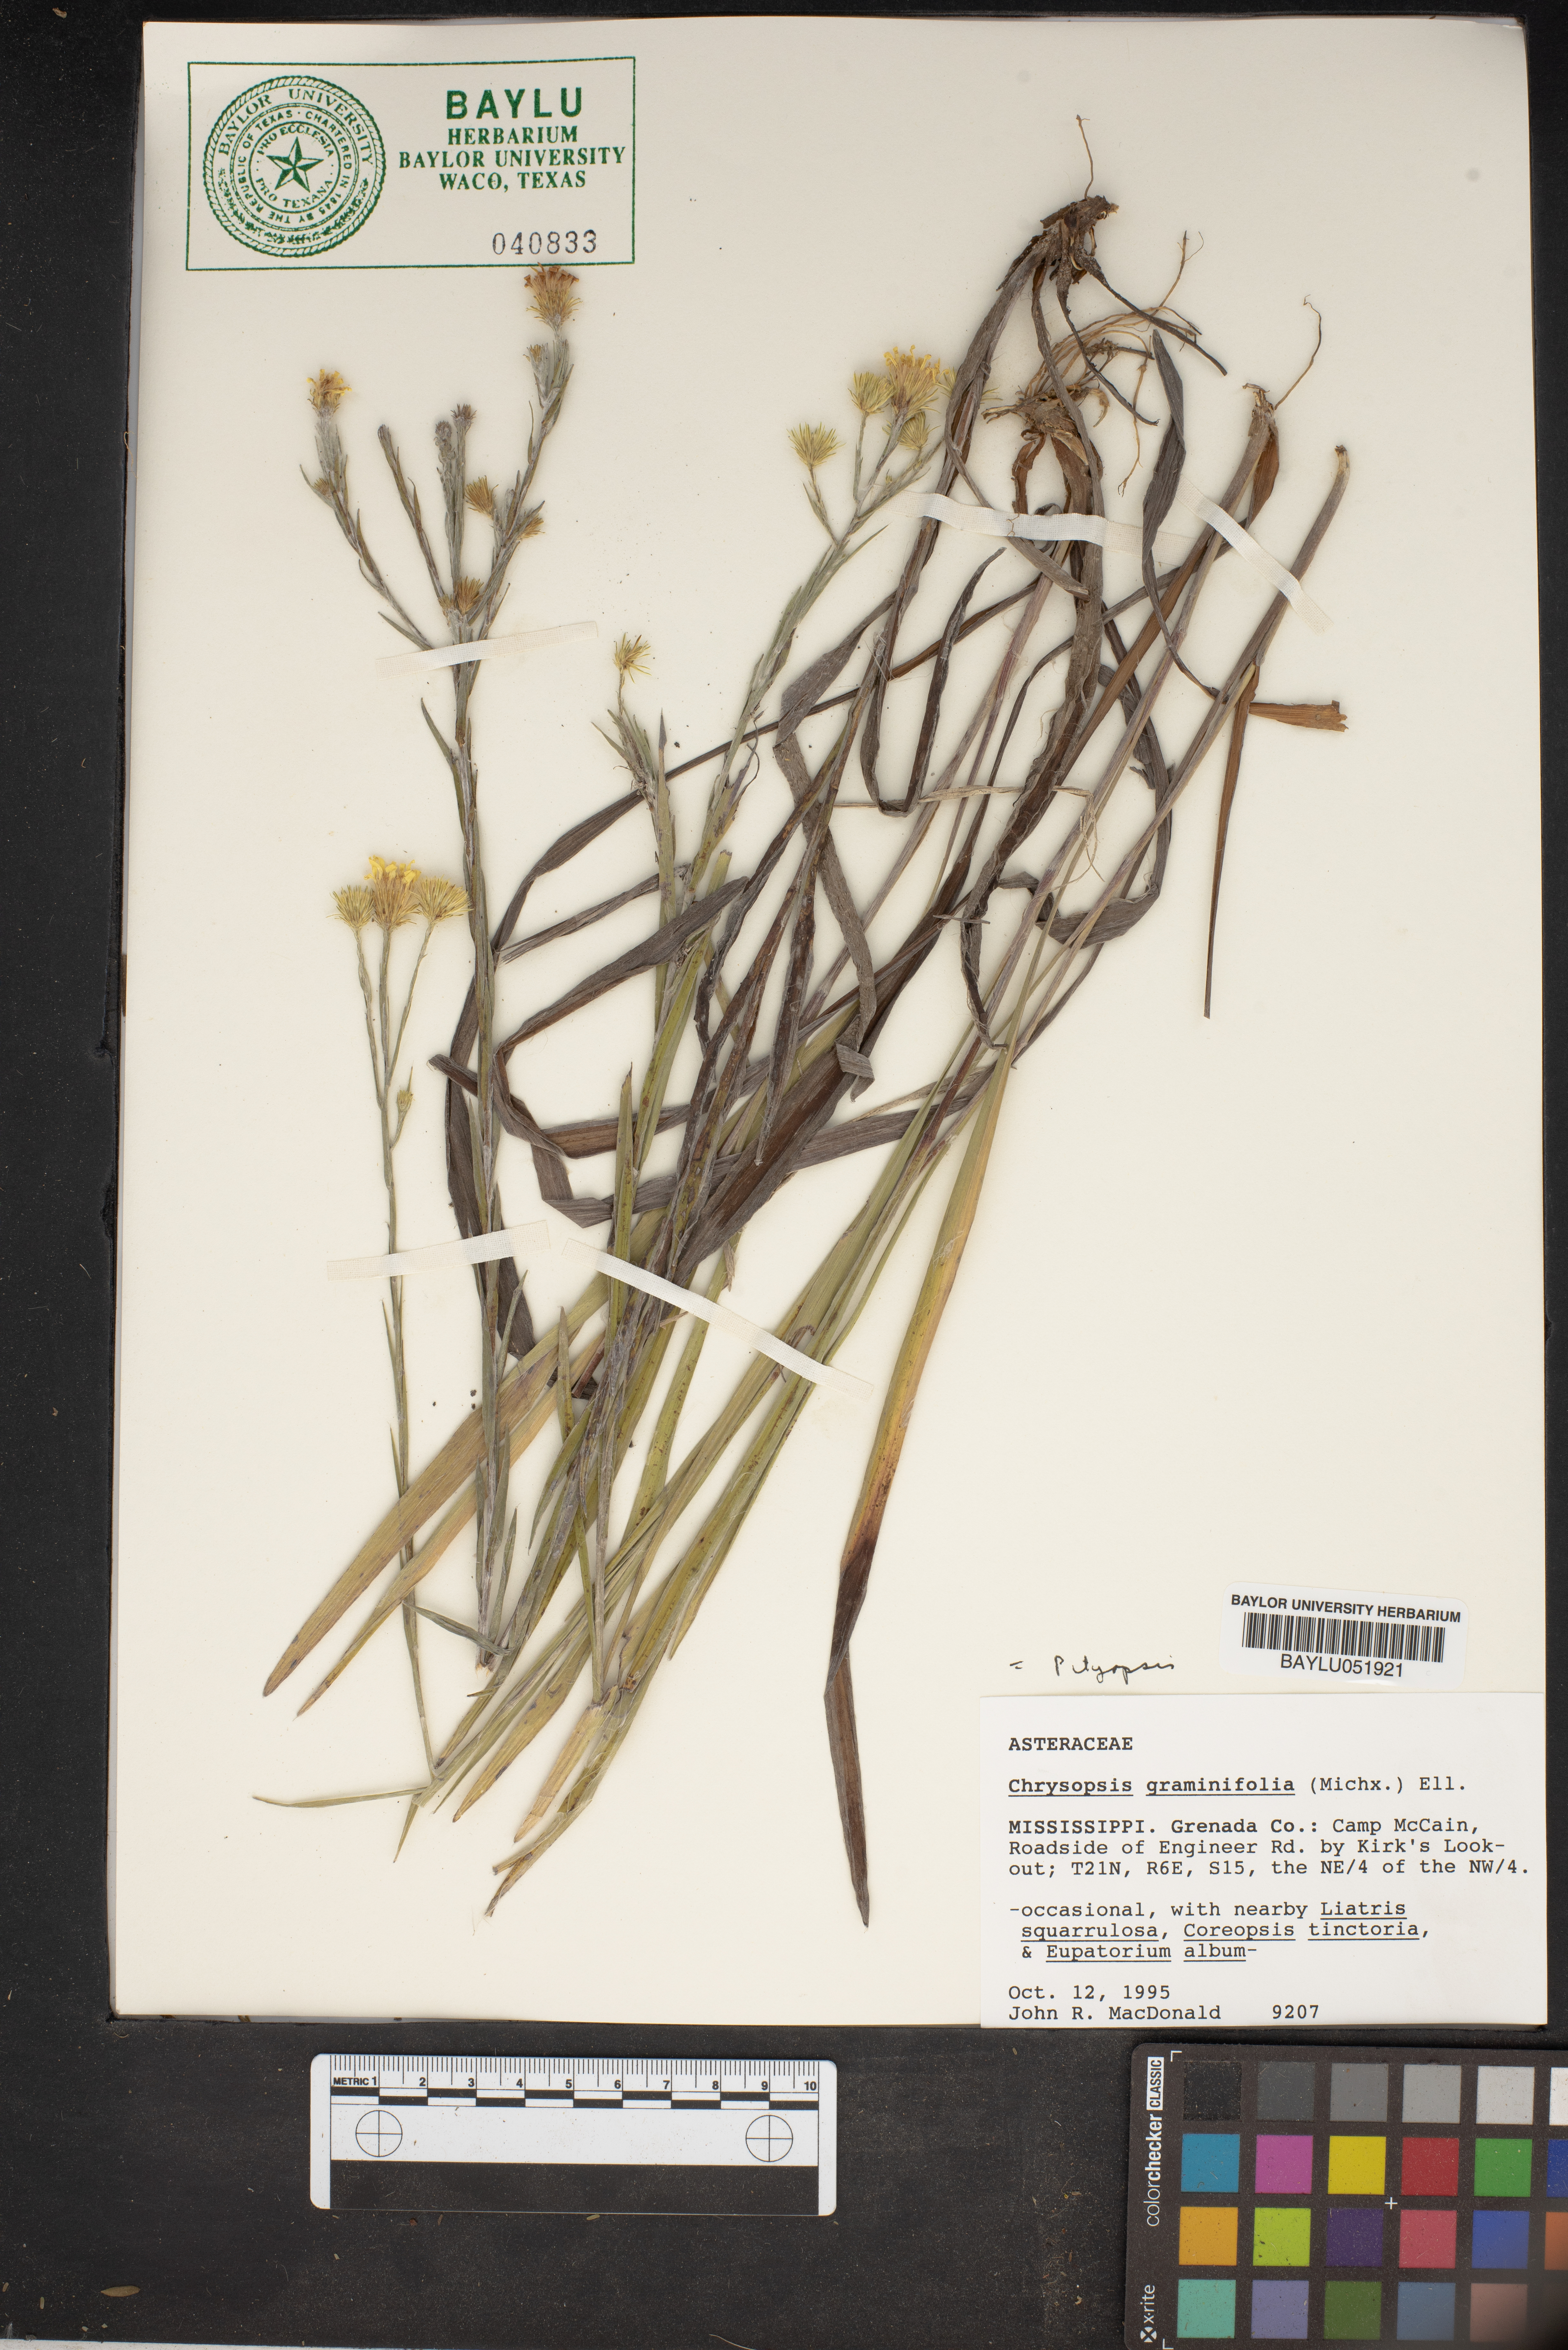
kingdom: Plantae
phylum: Tracheophyta
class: Magnoliopsida
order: Asterales
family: Asteraceae
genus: Pityopsis
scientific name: Pityopsis graminifolia
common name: Grass-leaf golden-aster
